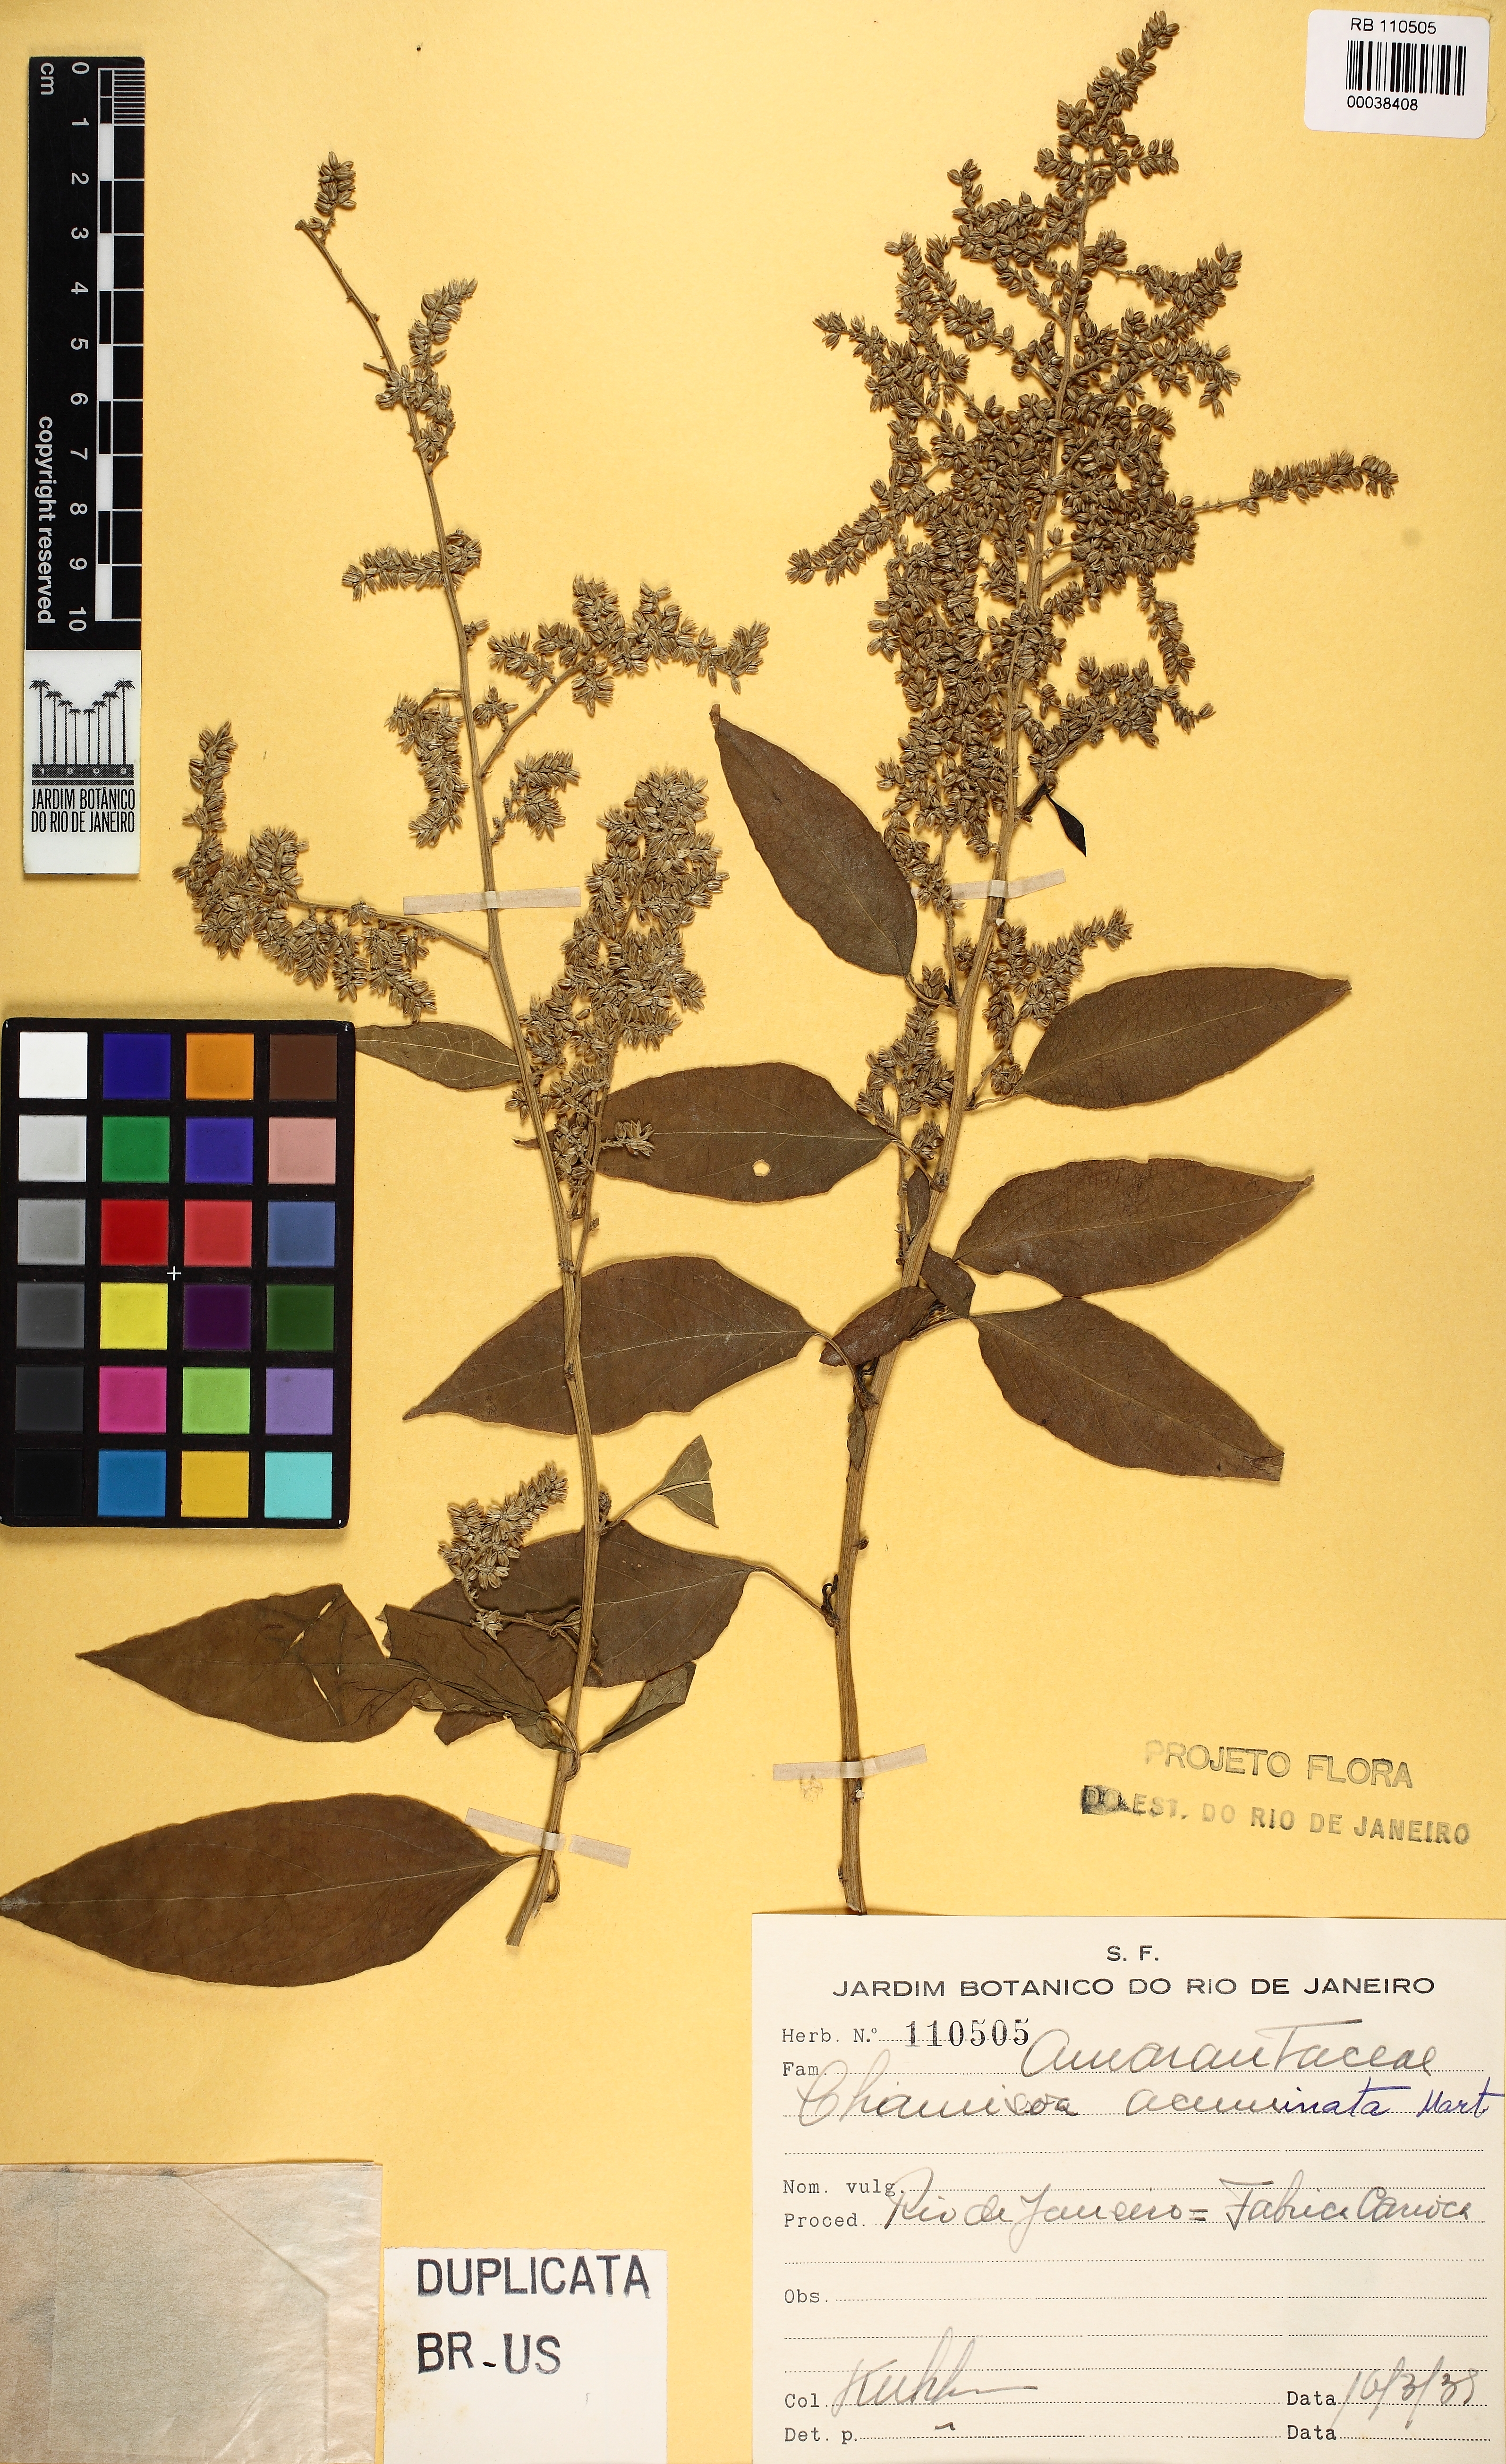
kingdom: Plantae
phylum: Tracheophyta
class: Magnoliopsida
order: Caryophyllales
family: Amaranthaceae
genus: Chamissoa
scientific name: Chamissoa acuminata
